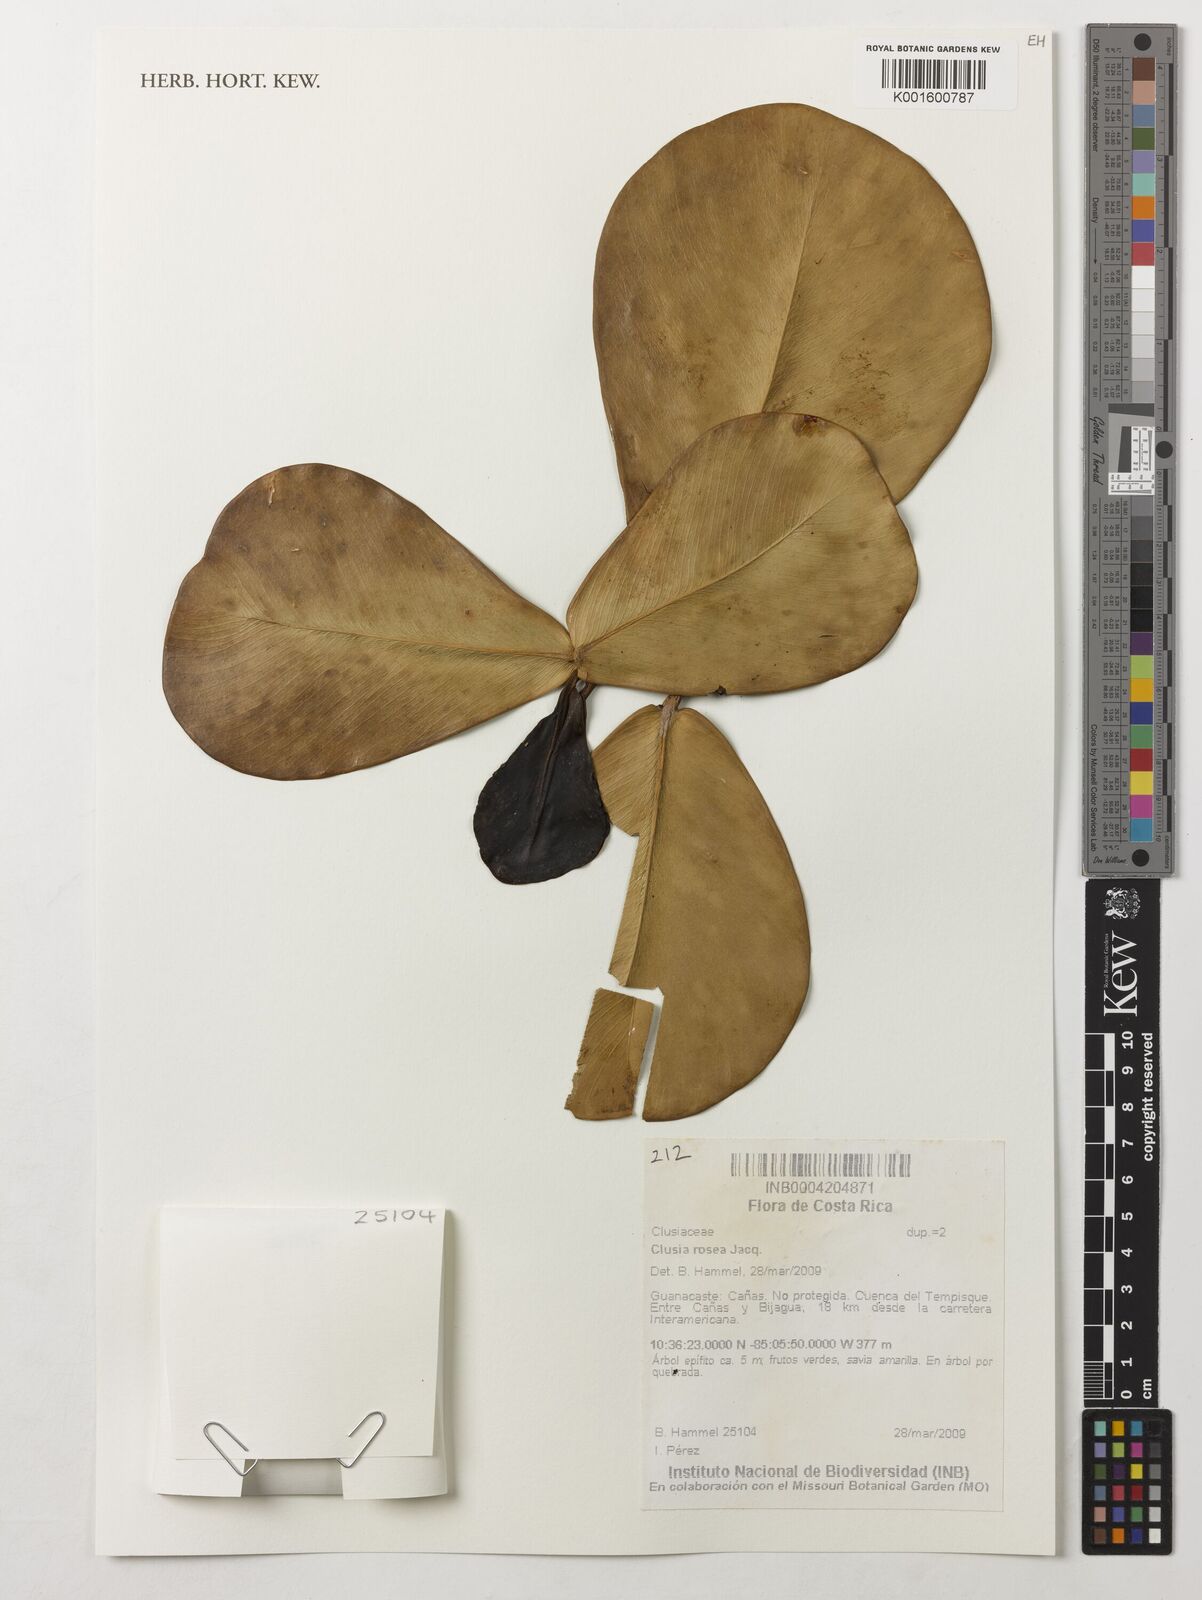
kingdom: Plantae
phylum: Tracheophyta
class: Magnoliopsida
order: Malpighiales
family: Clusiaceae
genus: Clusia
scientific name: Clusia rosea
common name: Scotch attorney
